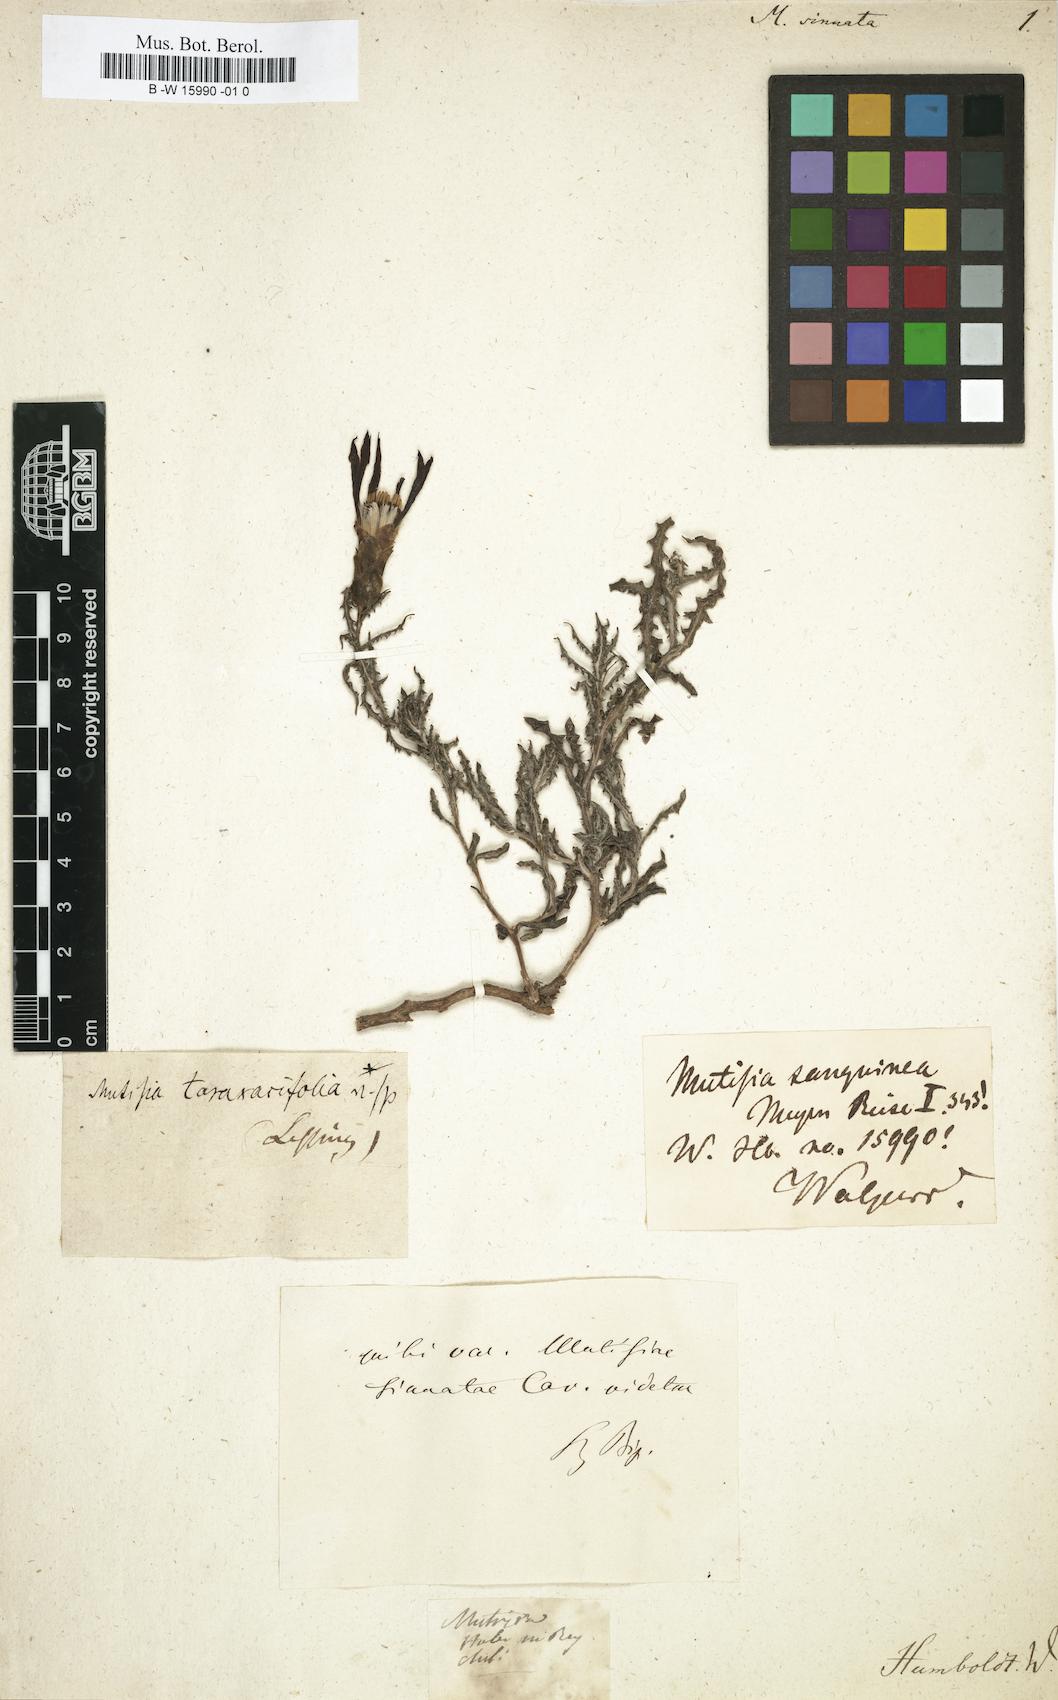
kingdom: Plantae
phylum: Tracheophyta
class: Magnoliopsida
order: Asterales
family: Asteraceae
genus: Mutisia
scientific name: Mutisia sinuata
